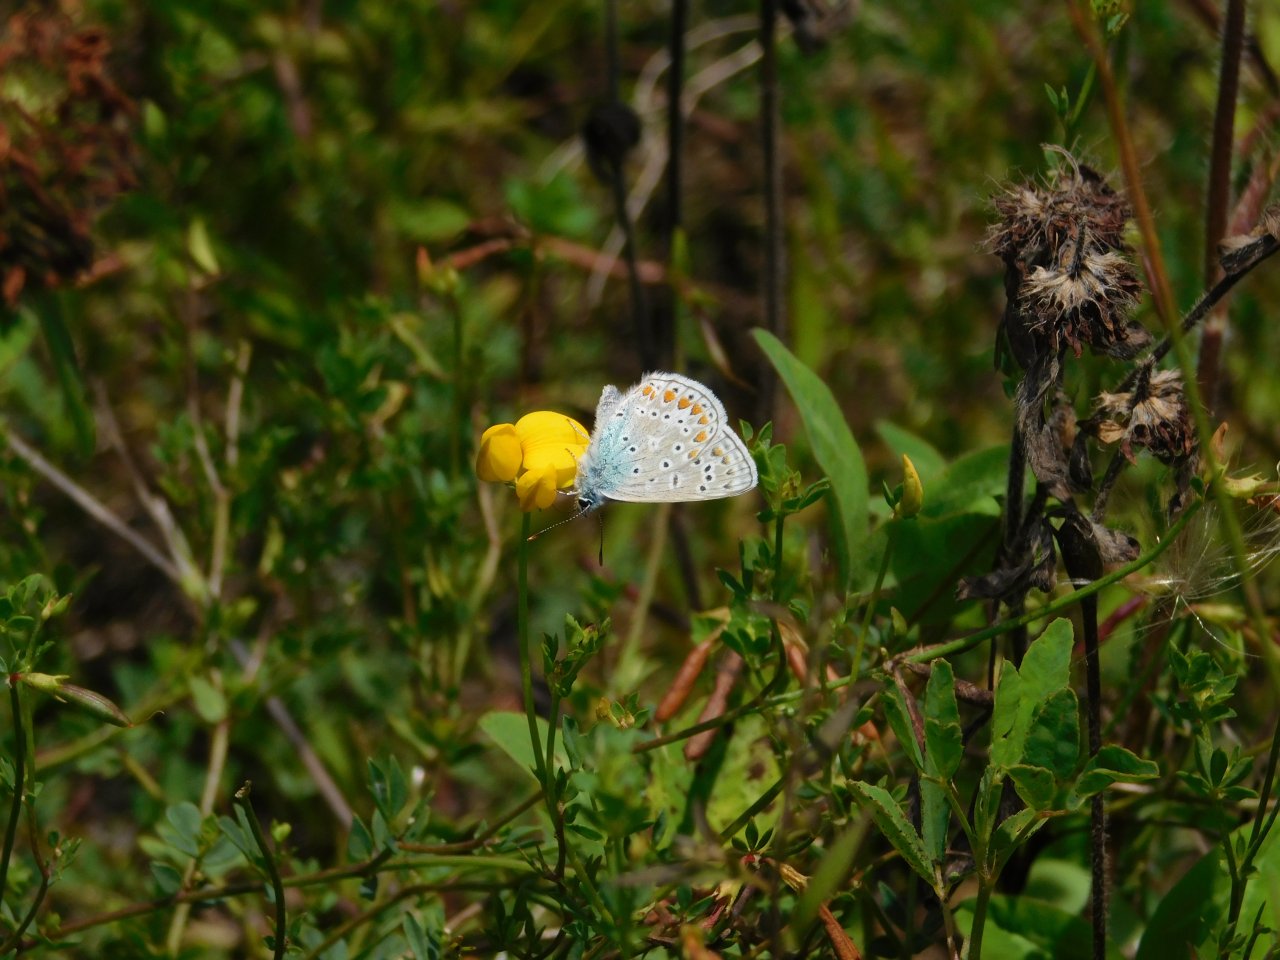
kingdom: Animalia
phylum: Arthropoda
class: Insecta
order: Lepidoptera
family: Lycaenidae
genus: Polyommatus
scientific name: Polyommatus icarus
